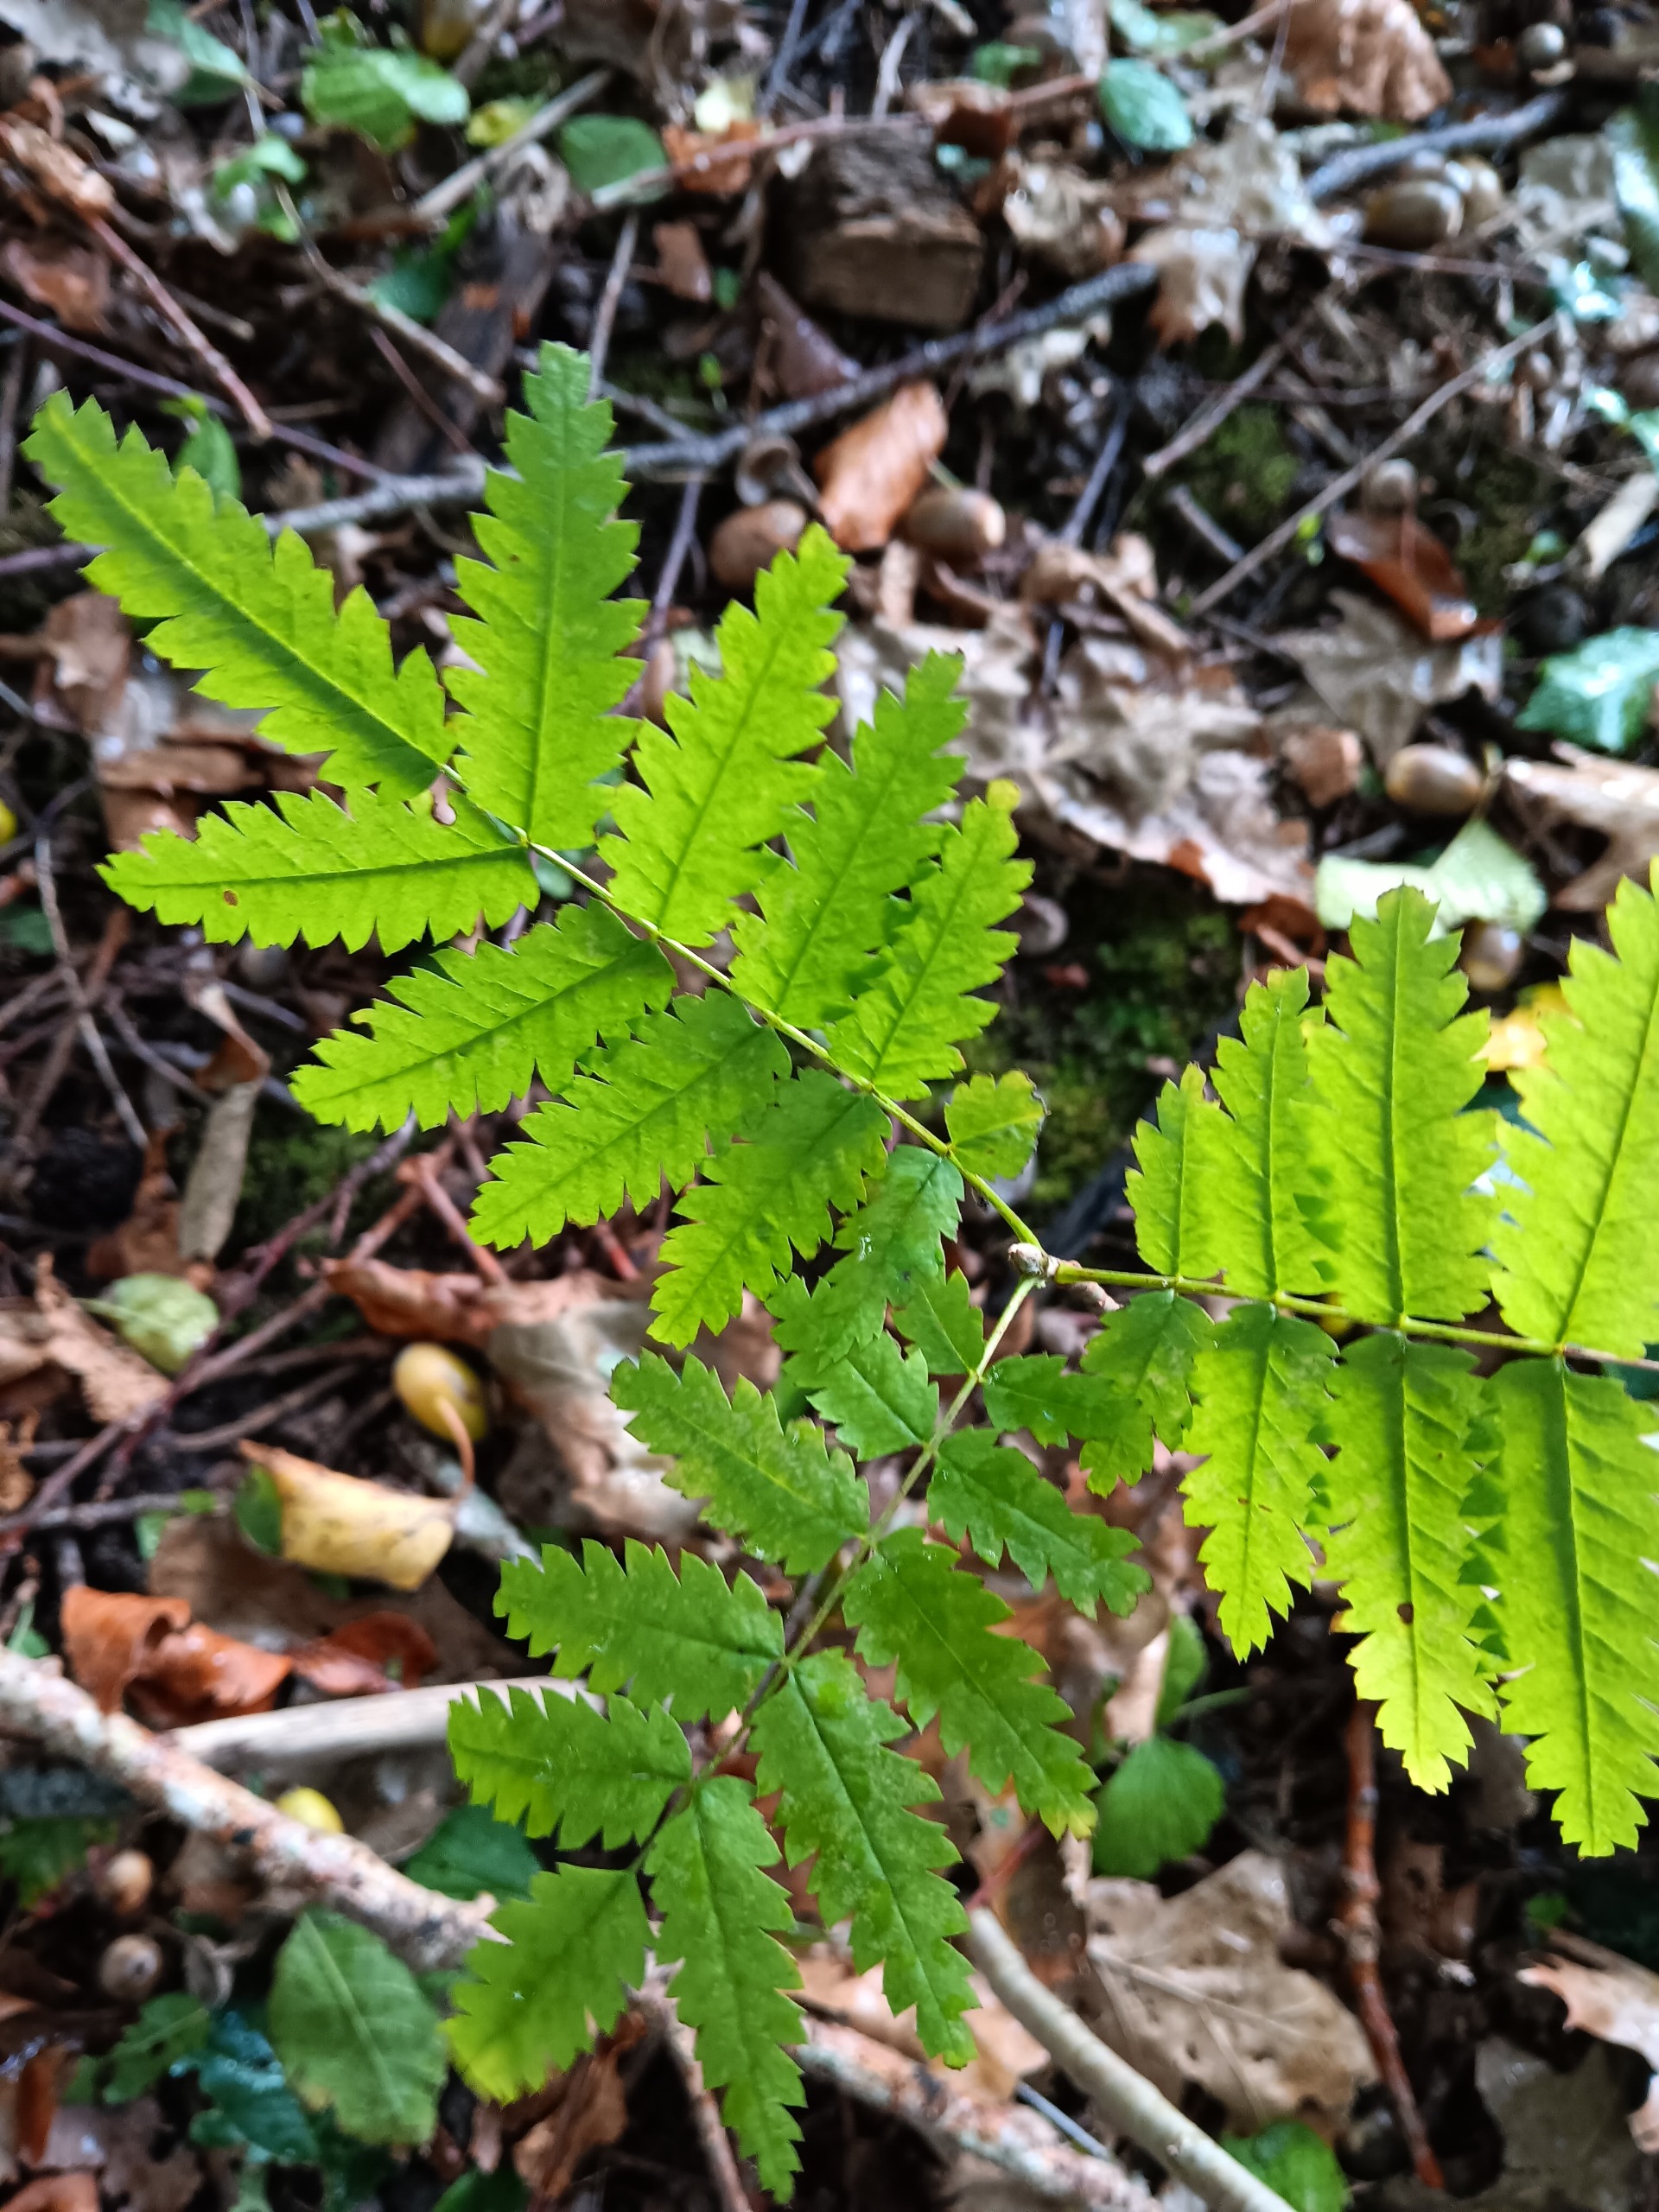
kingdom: Plantae
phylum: Tracheophyta
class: Magnoliopsida
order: Rosales
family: Rosaceae
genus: Sorbus
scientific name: Sorbus aucuparia
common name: Almindelig røn
